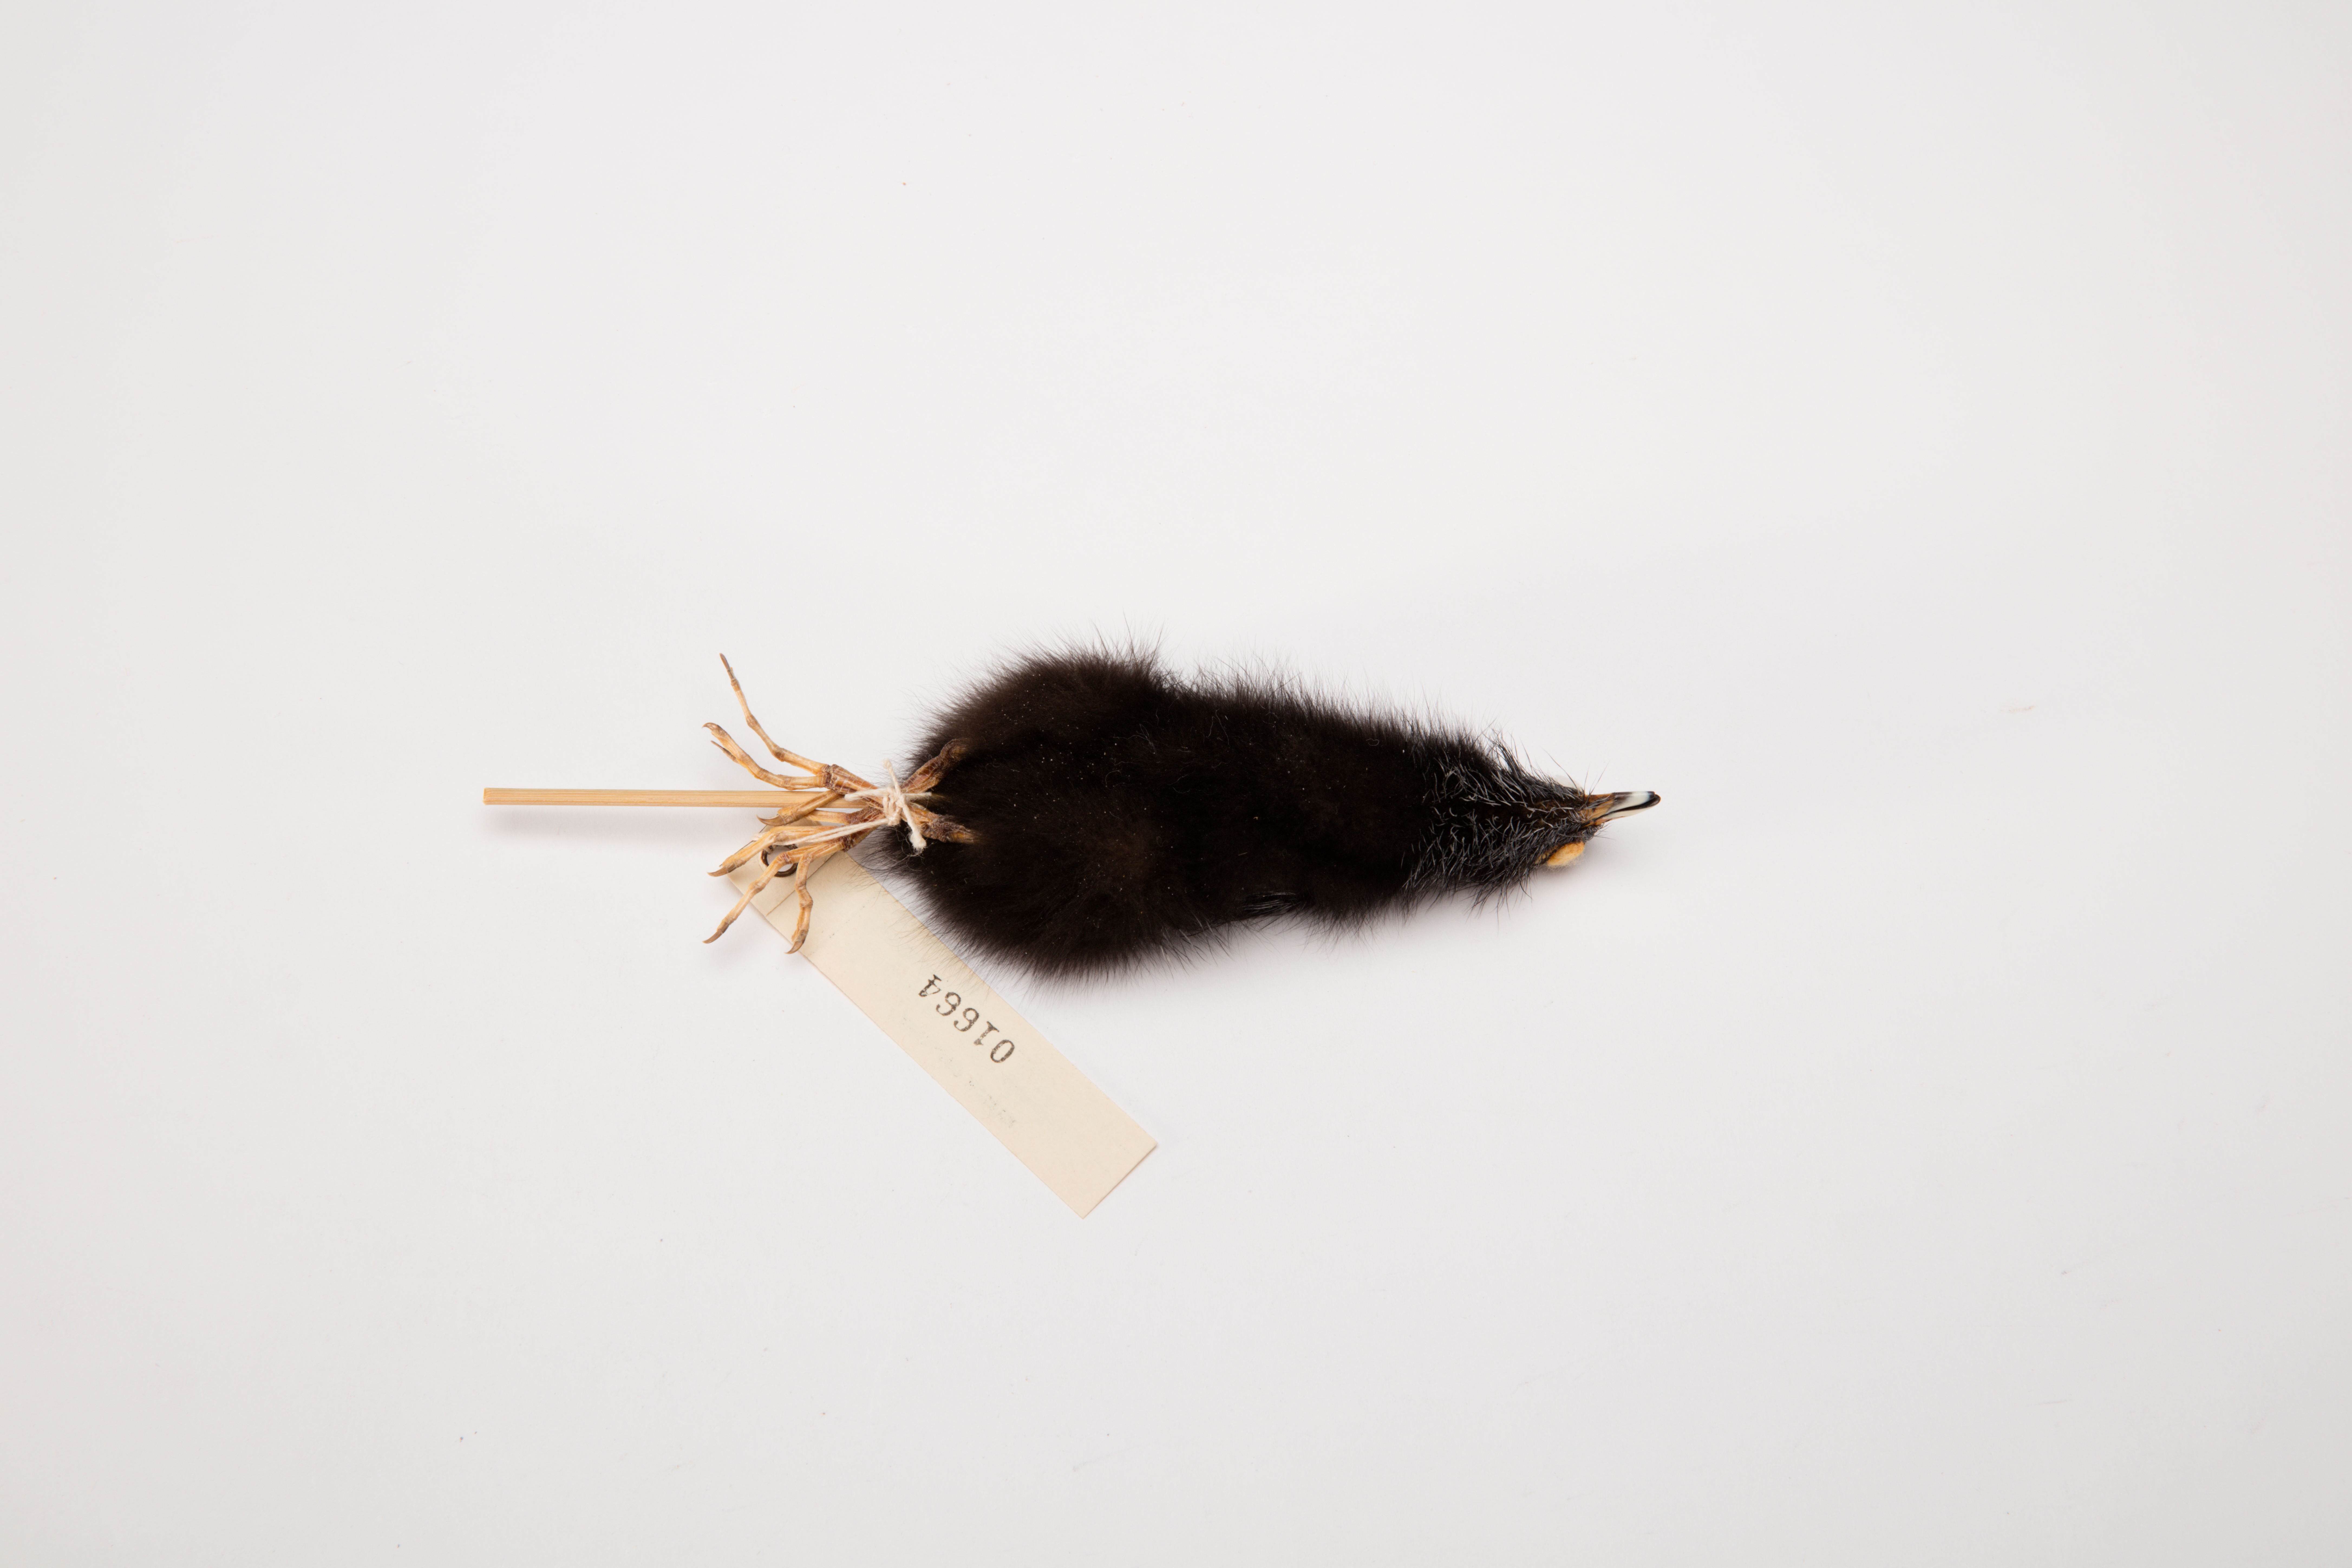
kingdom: Animalia
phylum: Chordata
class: Aves
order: Gruiformes
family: Rallidae
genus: Porphyrio
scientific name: Porphyrio melanotus
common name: Australasian swamphen
